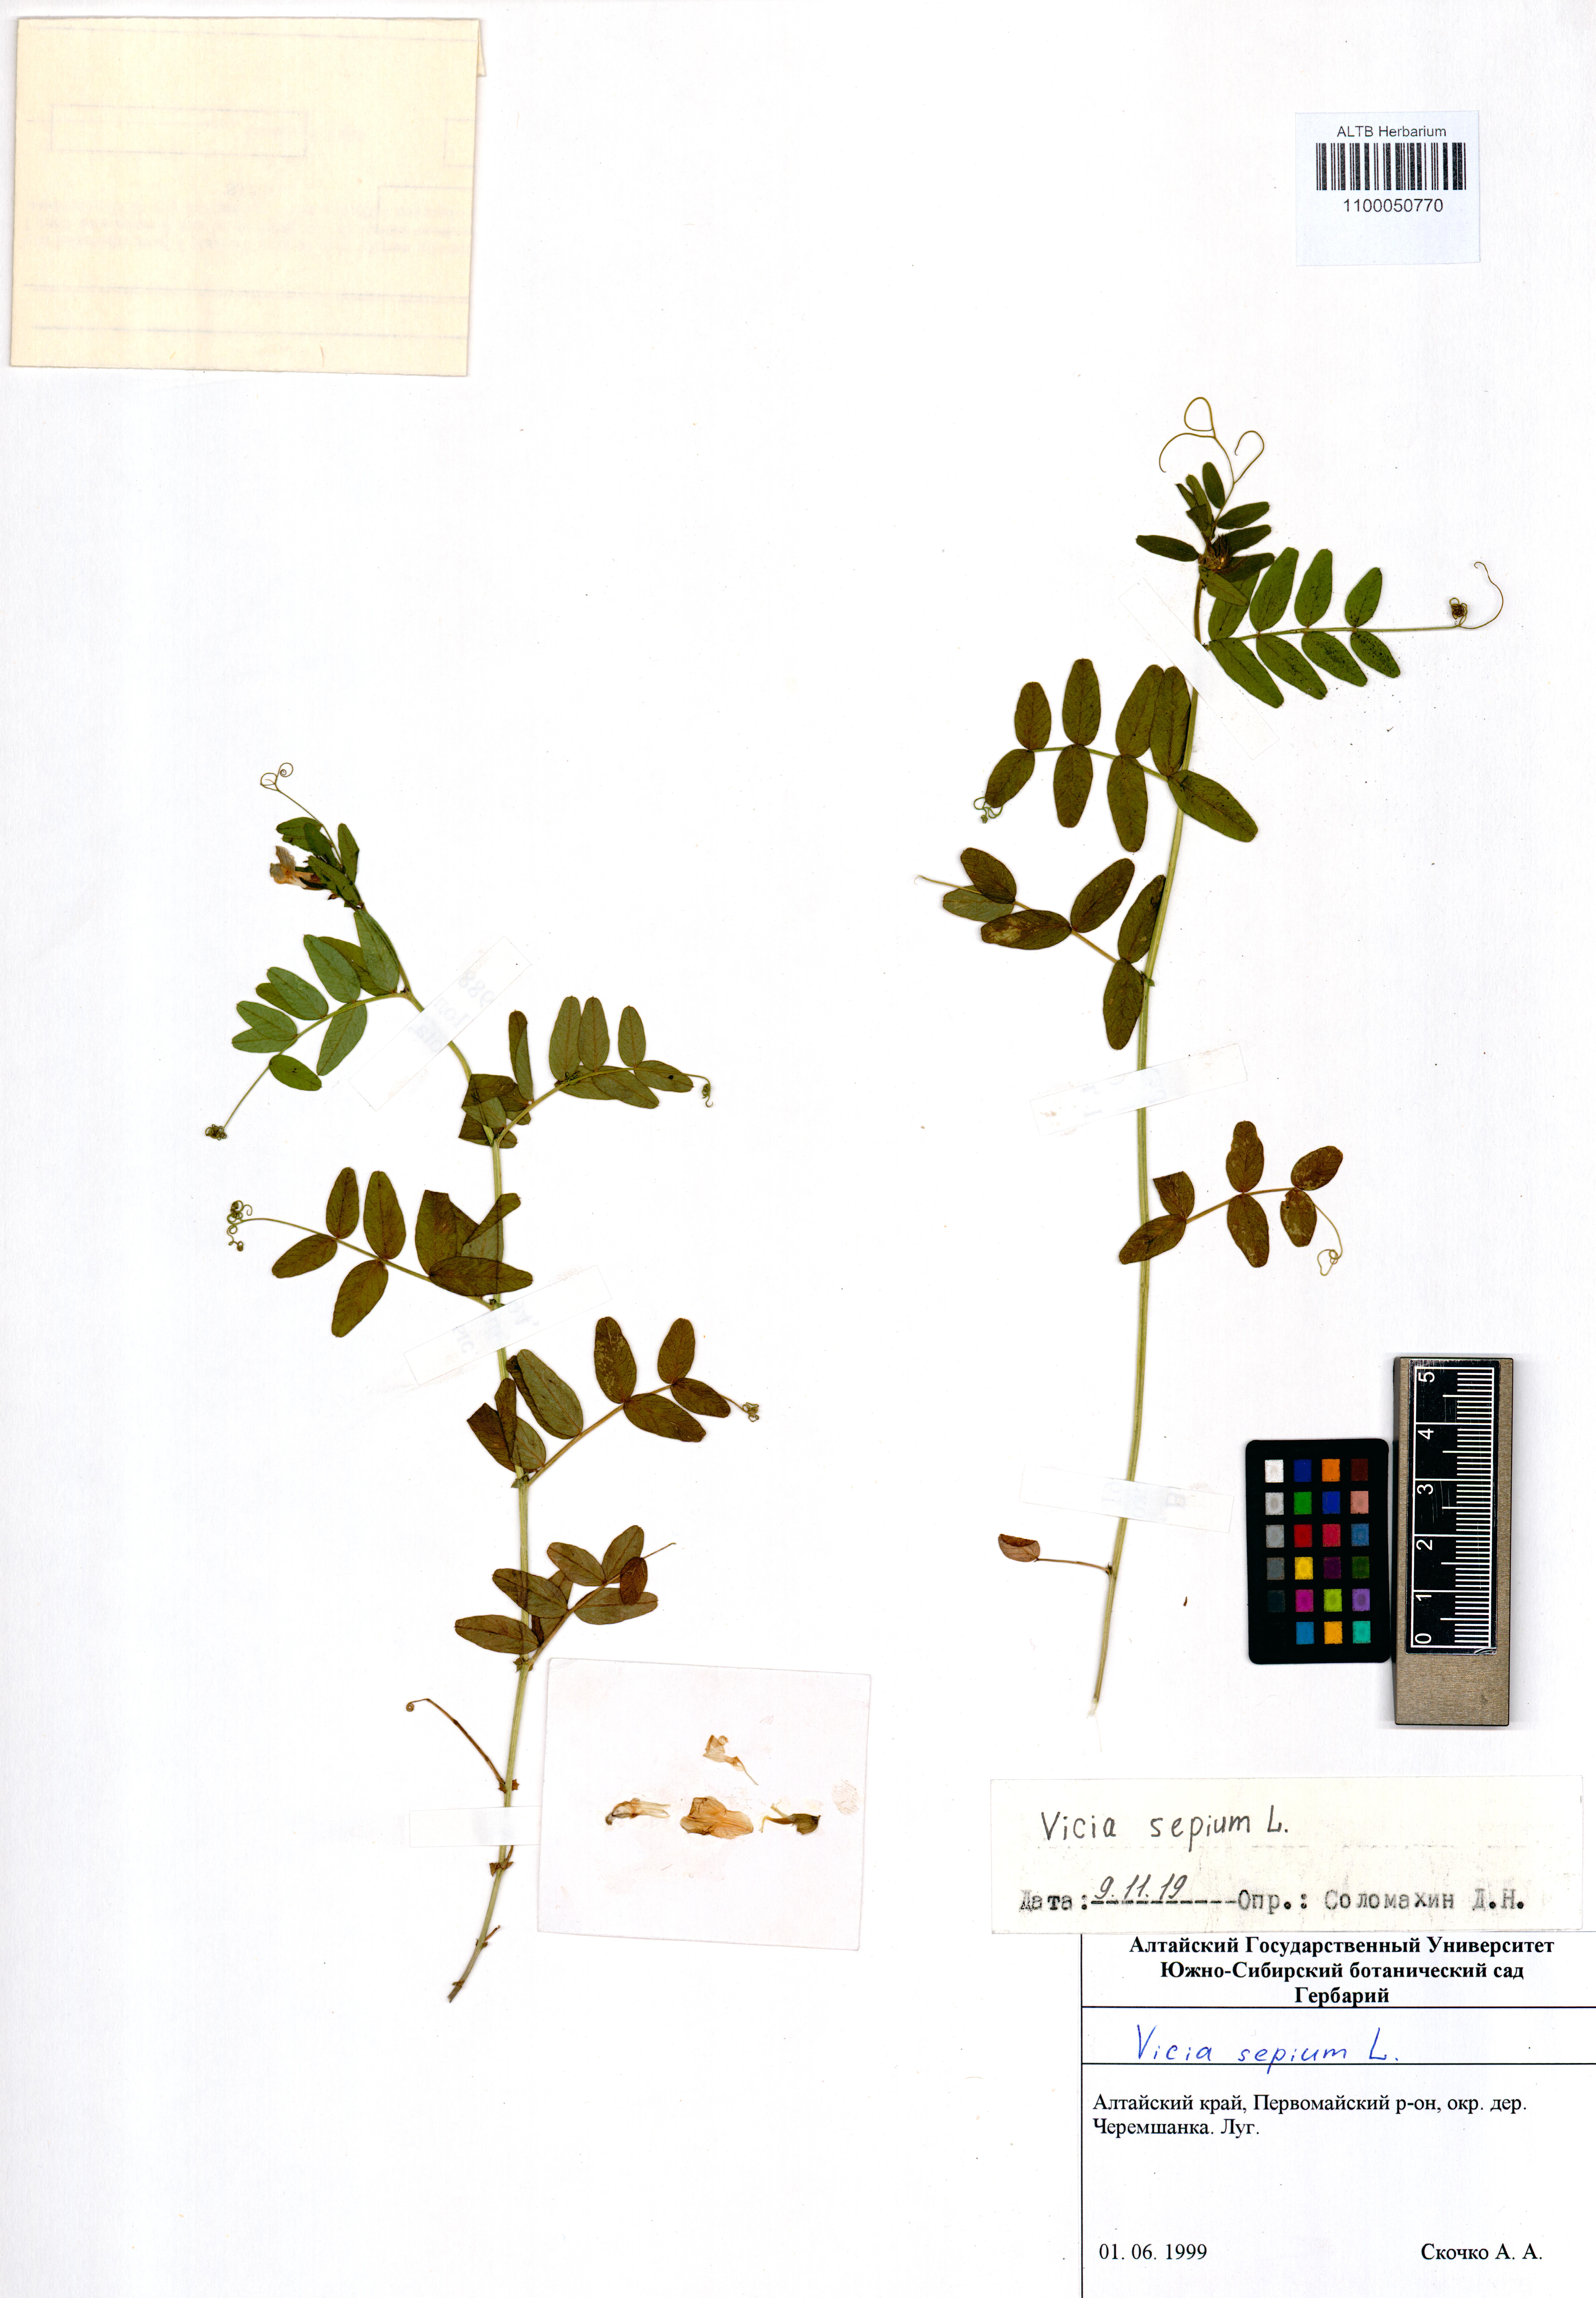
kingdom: Plantae
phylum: Tracheophyta
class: Magnoliopsida
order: Fabales
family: Fabaceae
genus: Vicia
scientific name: Vicia sepium
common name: Bush vetch
